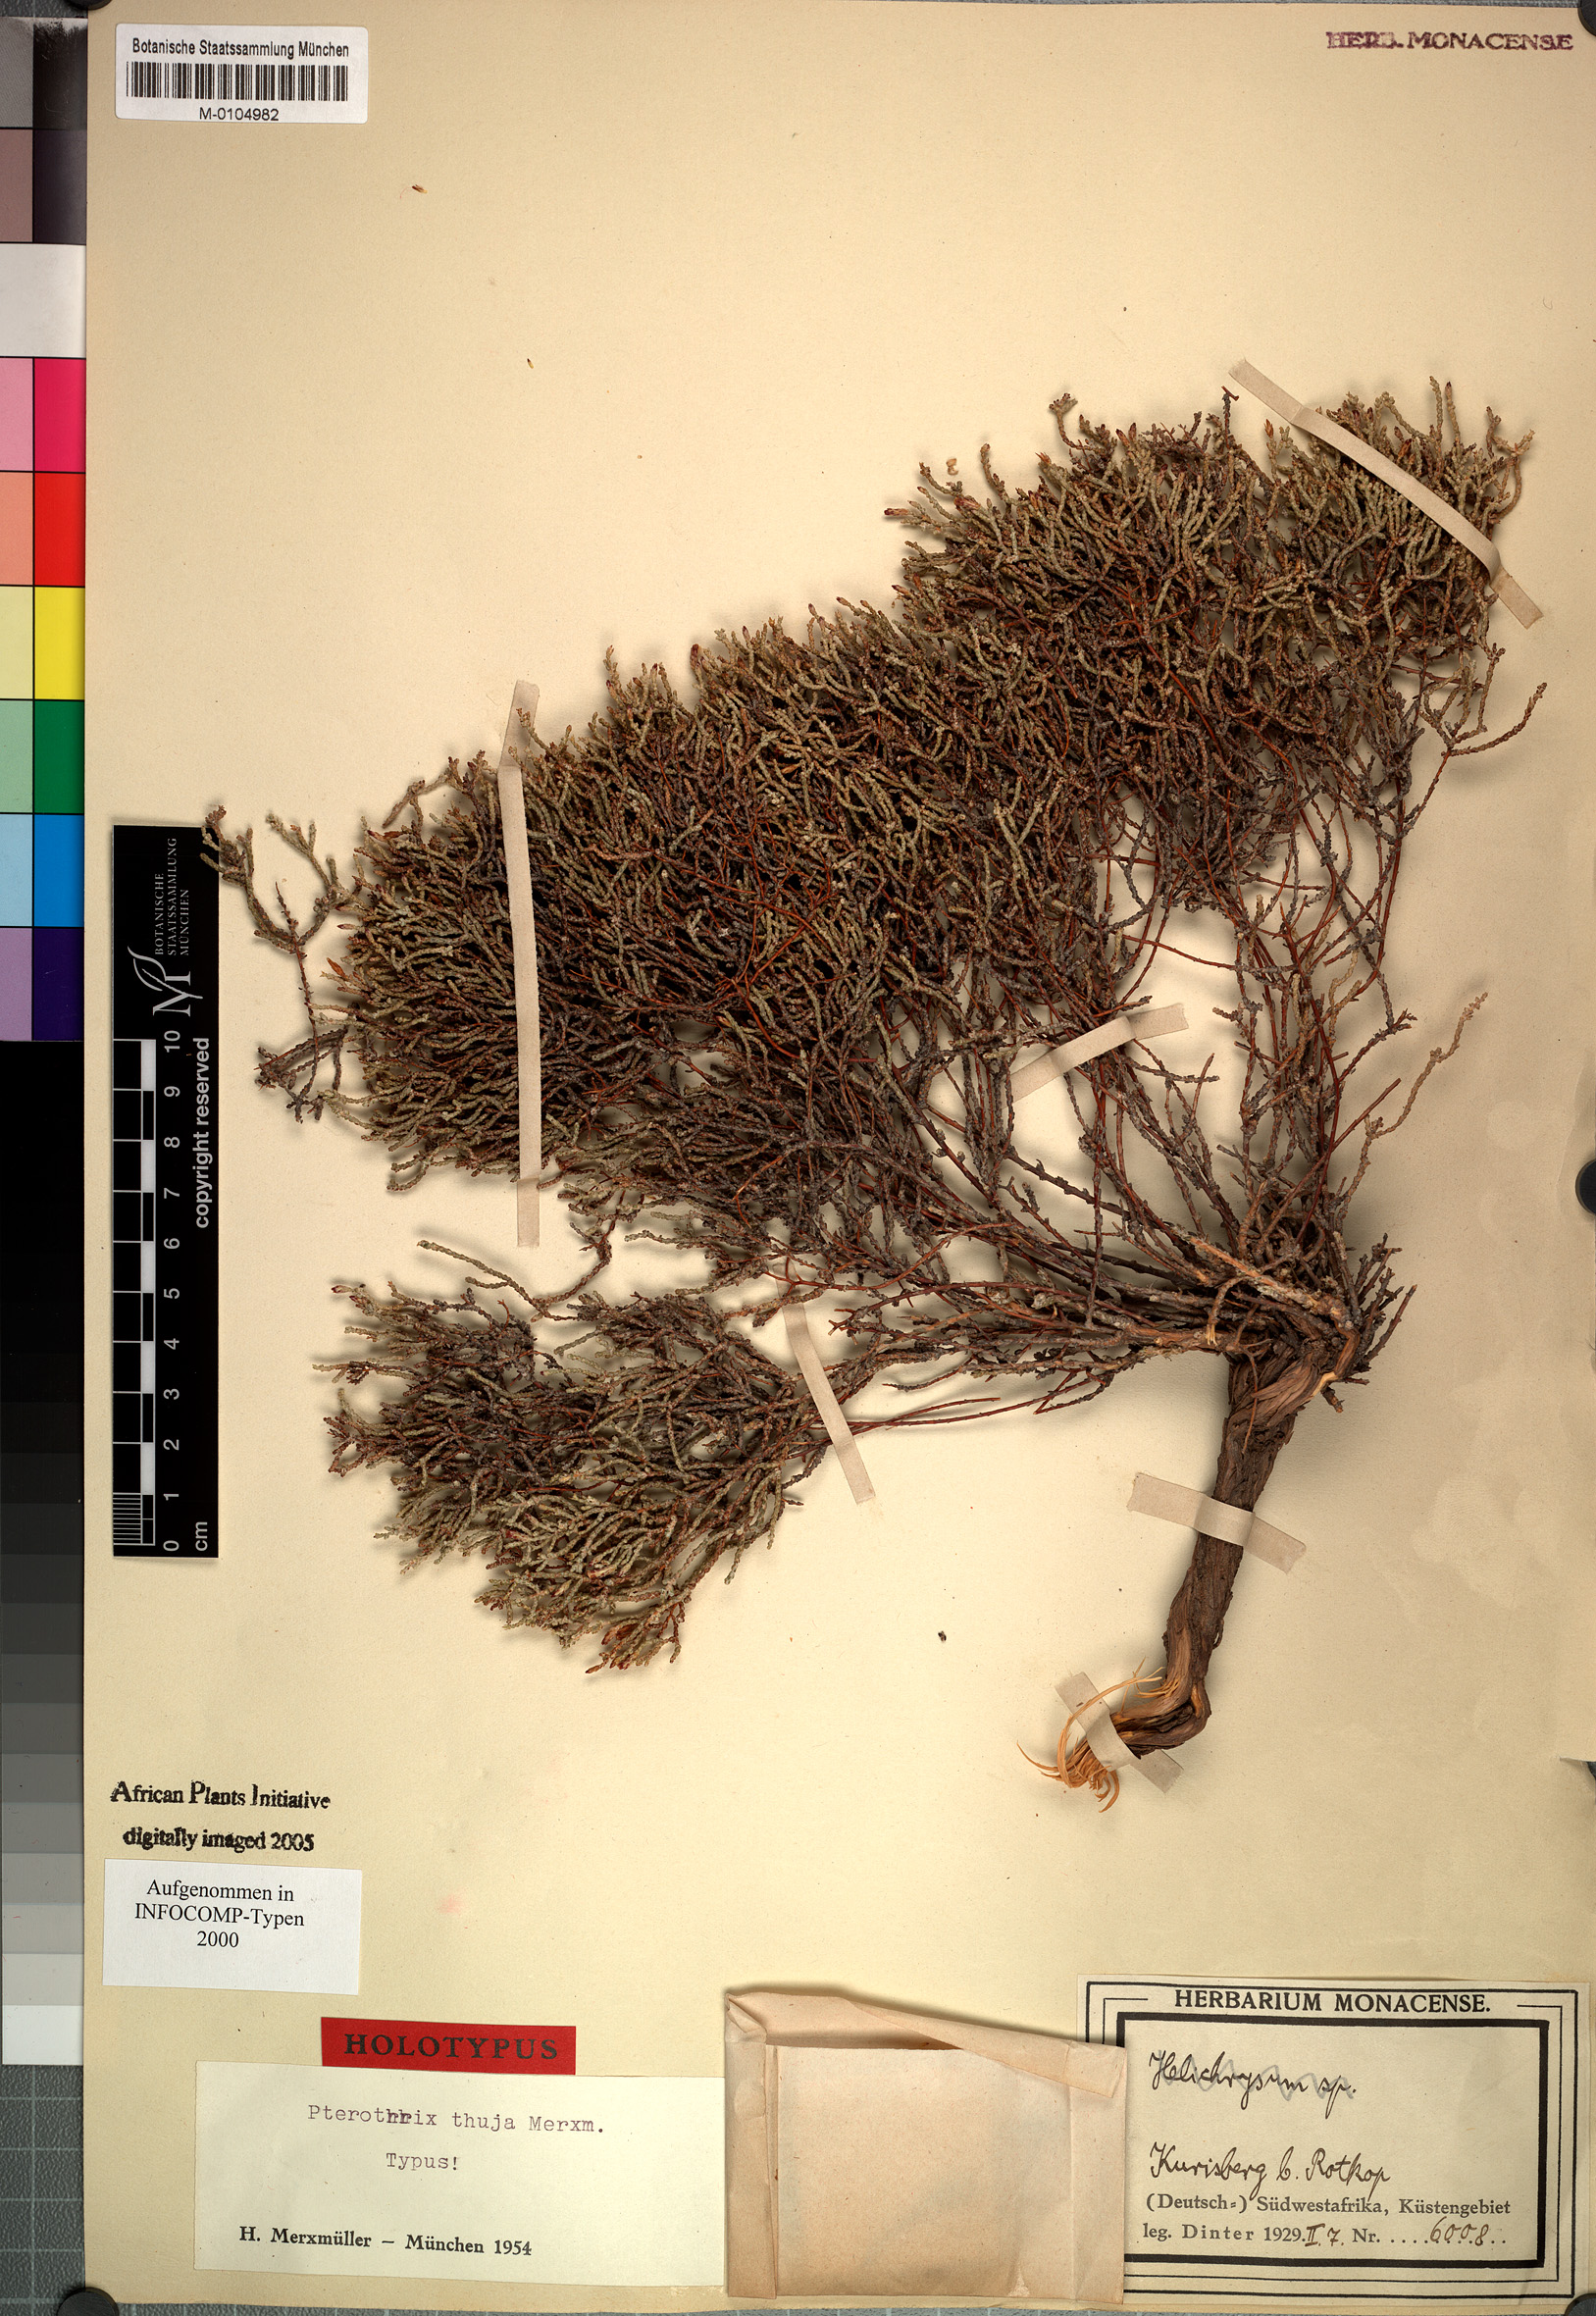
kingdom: Plantae
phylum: Tracheophyta
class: Magnoliopsida
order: Asterales
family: Asteraceae
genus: Amphiglossa
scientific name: Amphiglossa thuja
